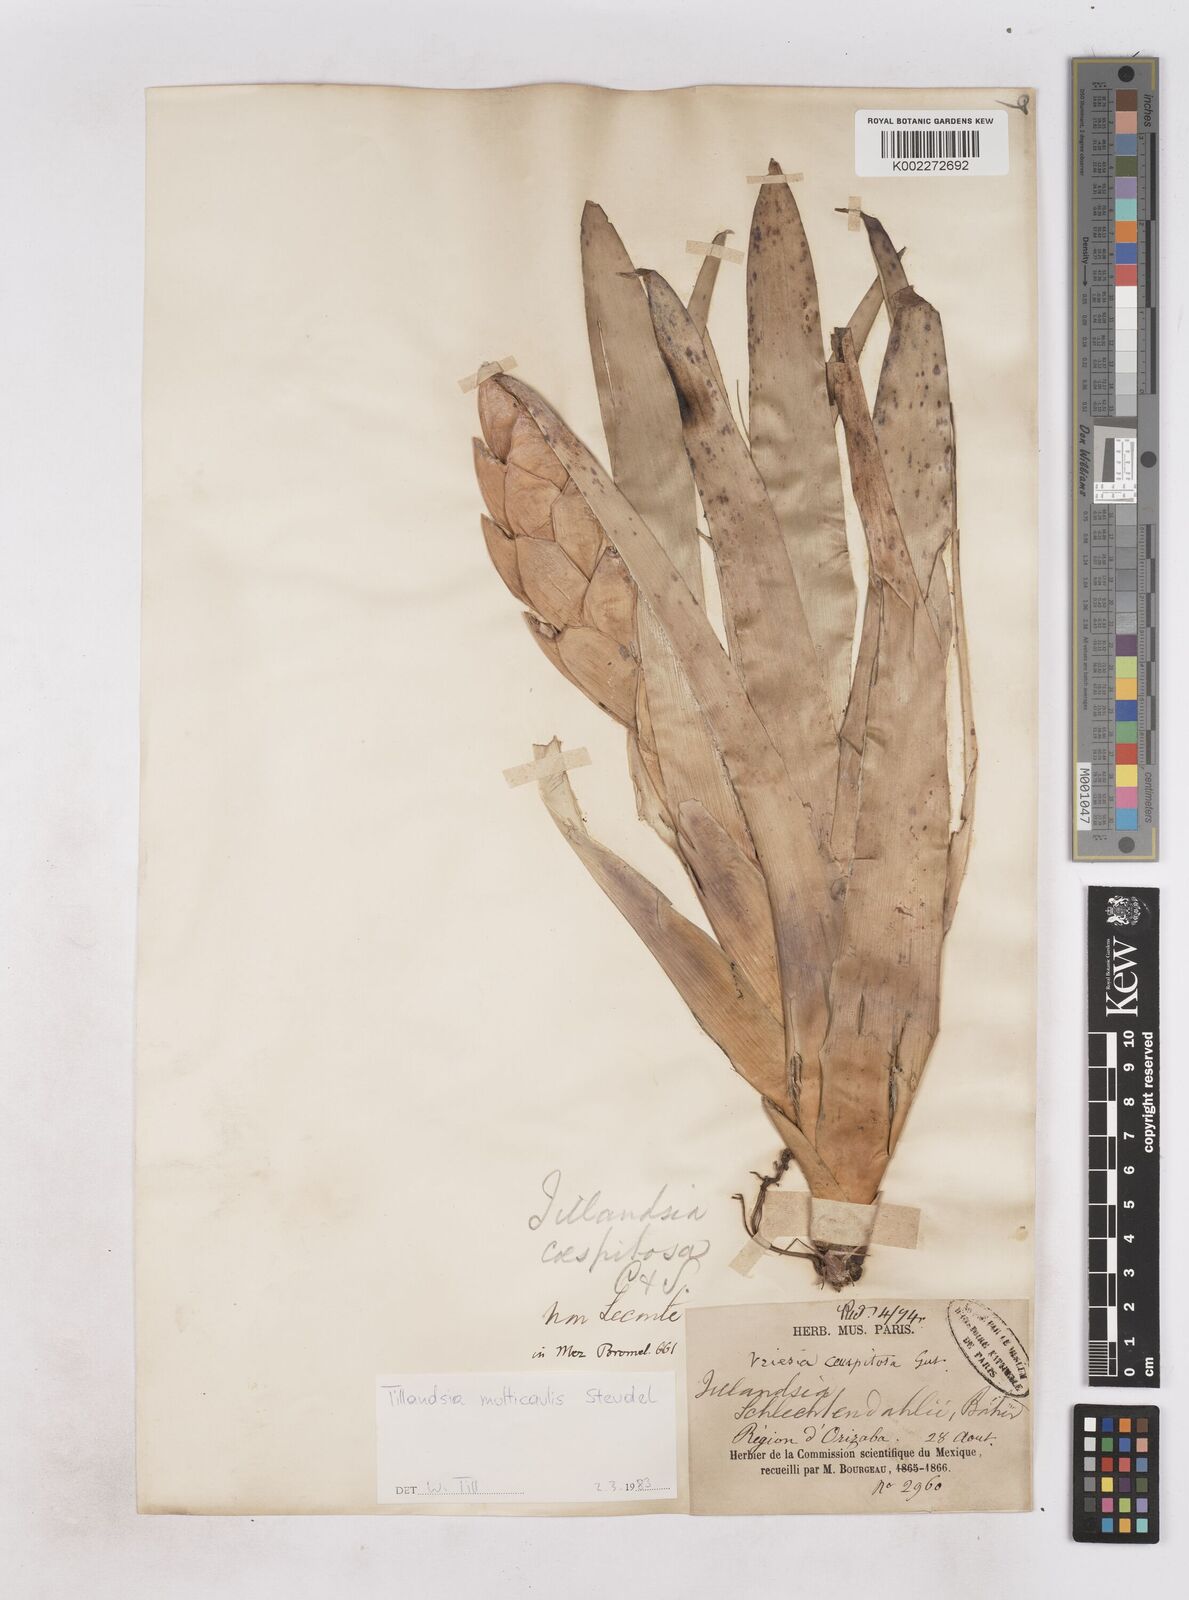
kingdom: Plantae
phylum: Tracheophyta
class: Liliopsida
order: Poales
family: Bromeliaceae
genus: Tillandsia
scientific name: Tillandsia multicaulis
